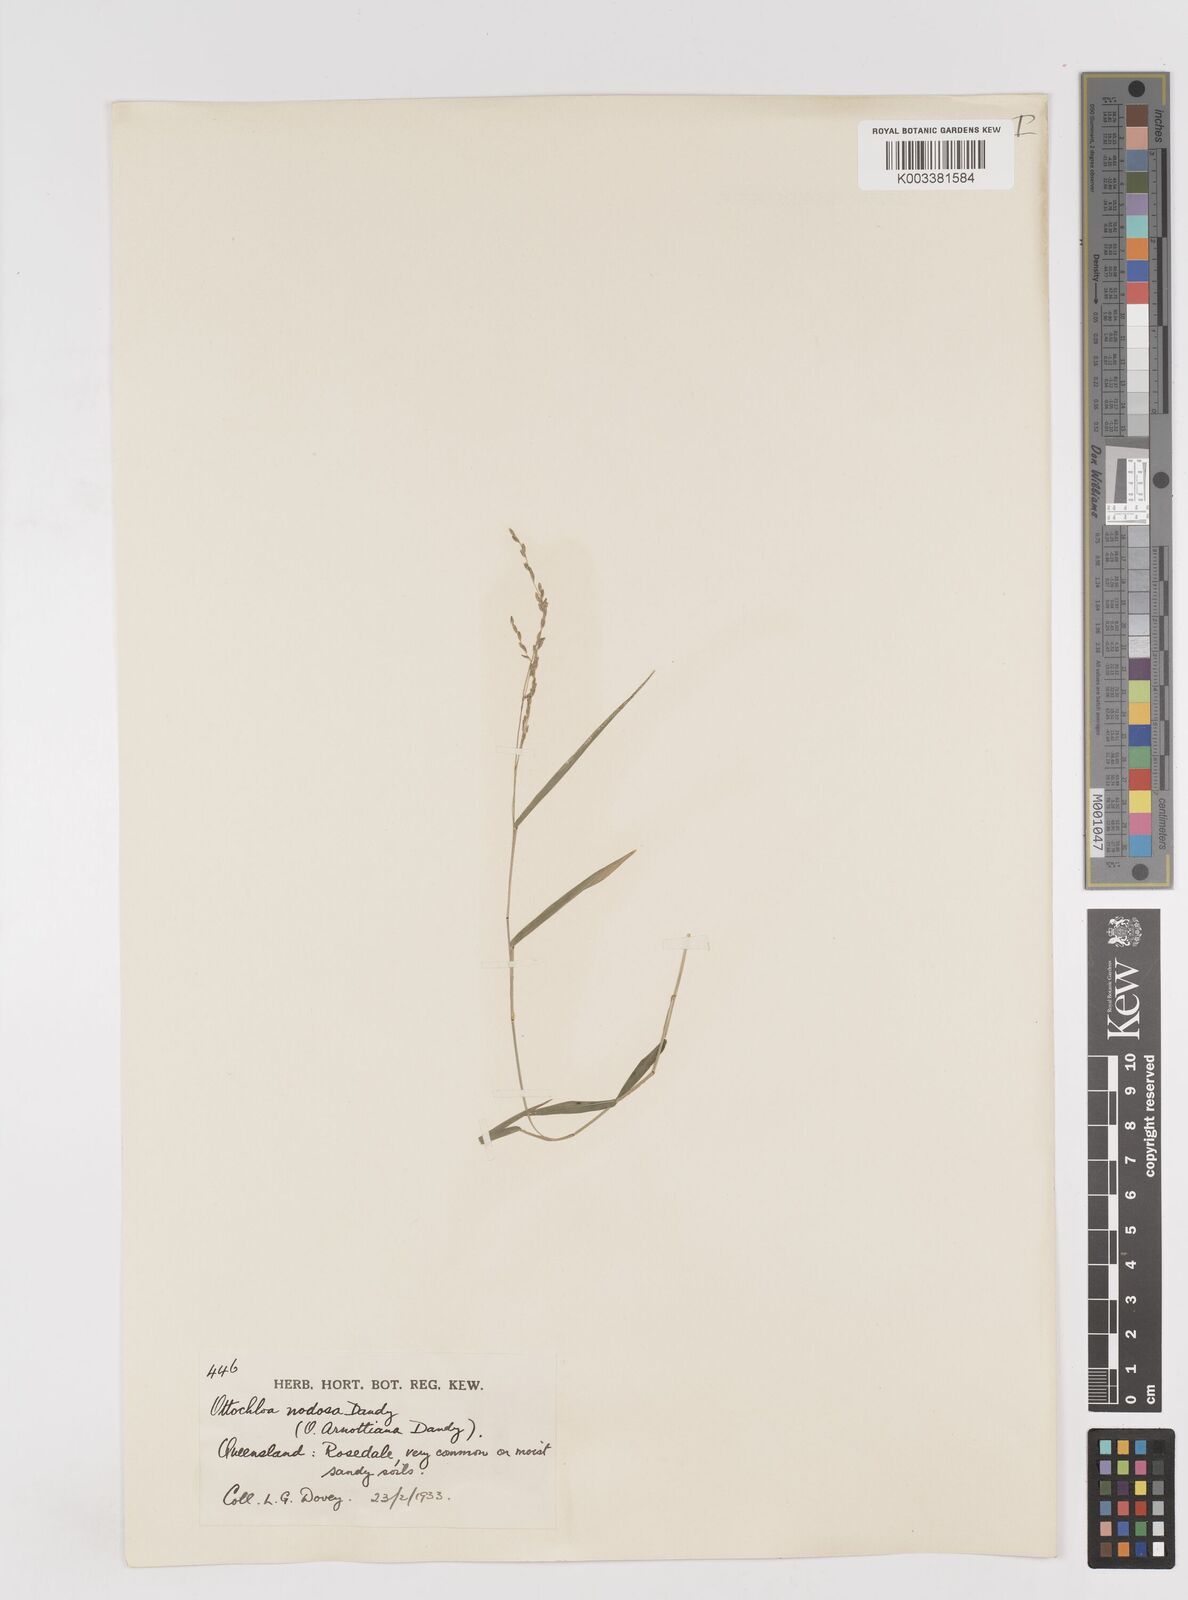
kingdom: Plantae
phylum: Tracheophyta
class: Liliopsida
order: Poales
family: Poaceae
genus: Ottochloa
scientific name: Ottochloa nodosa
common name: Slender-panic grass
